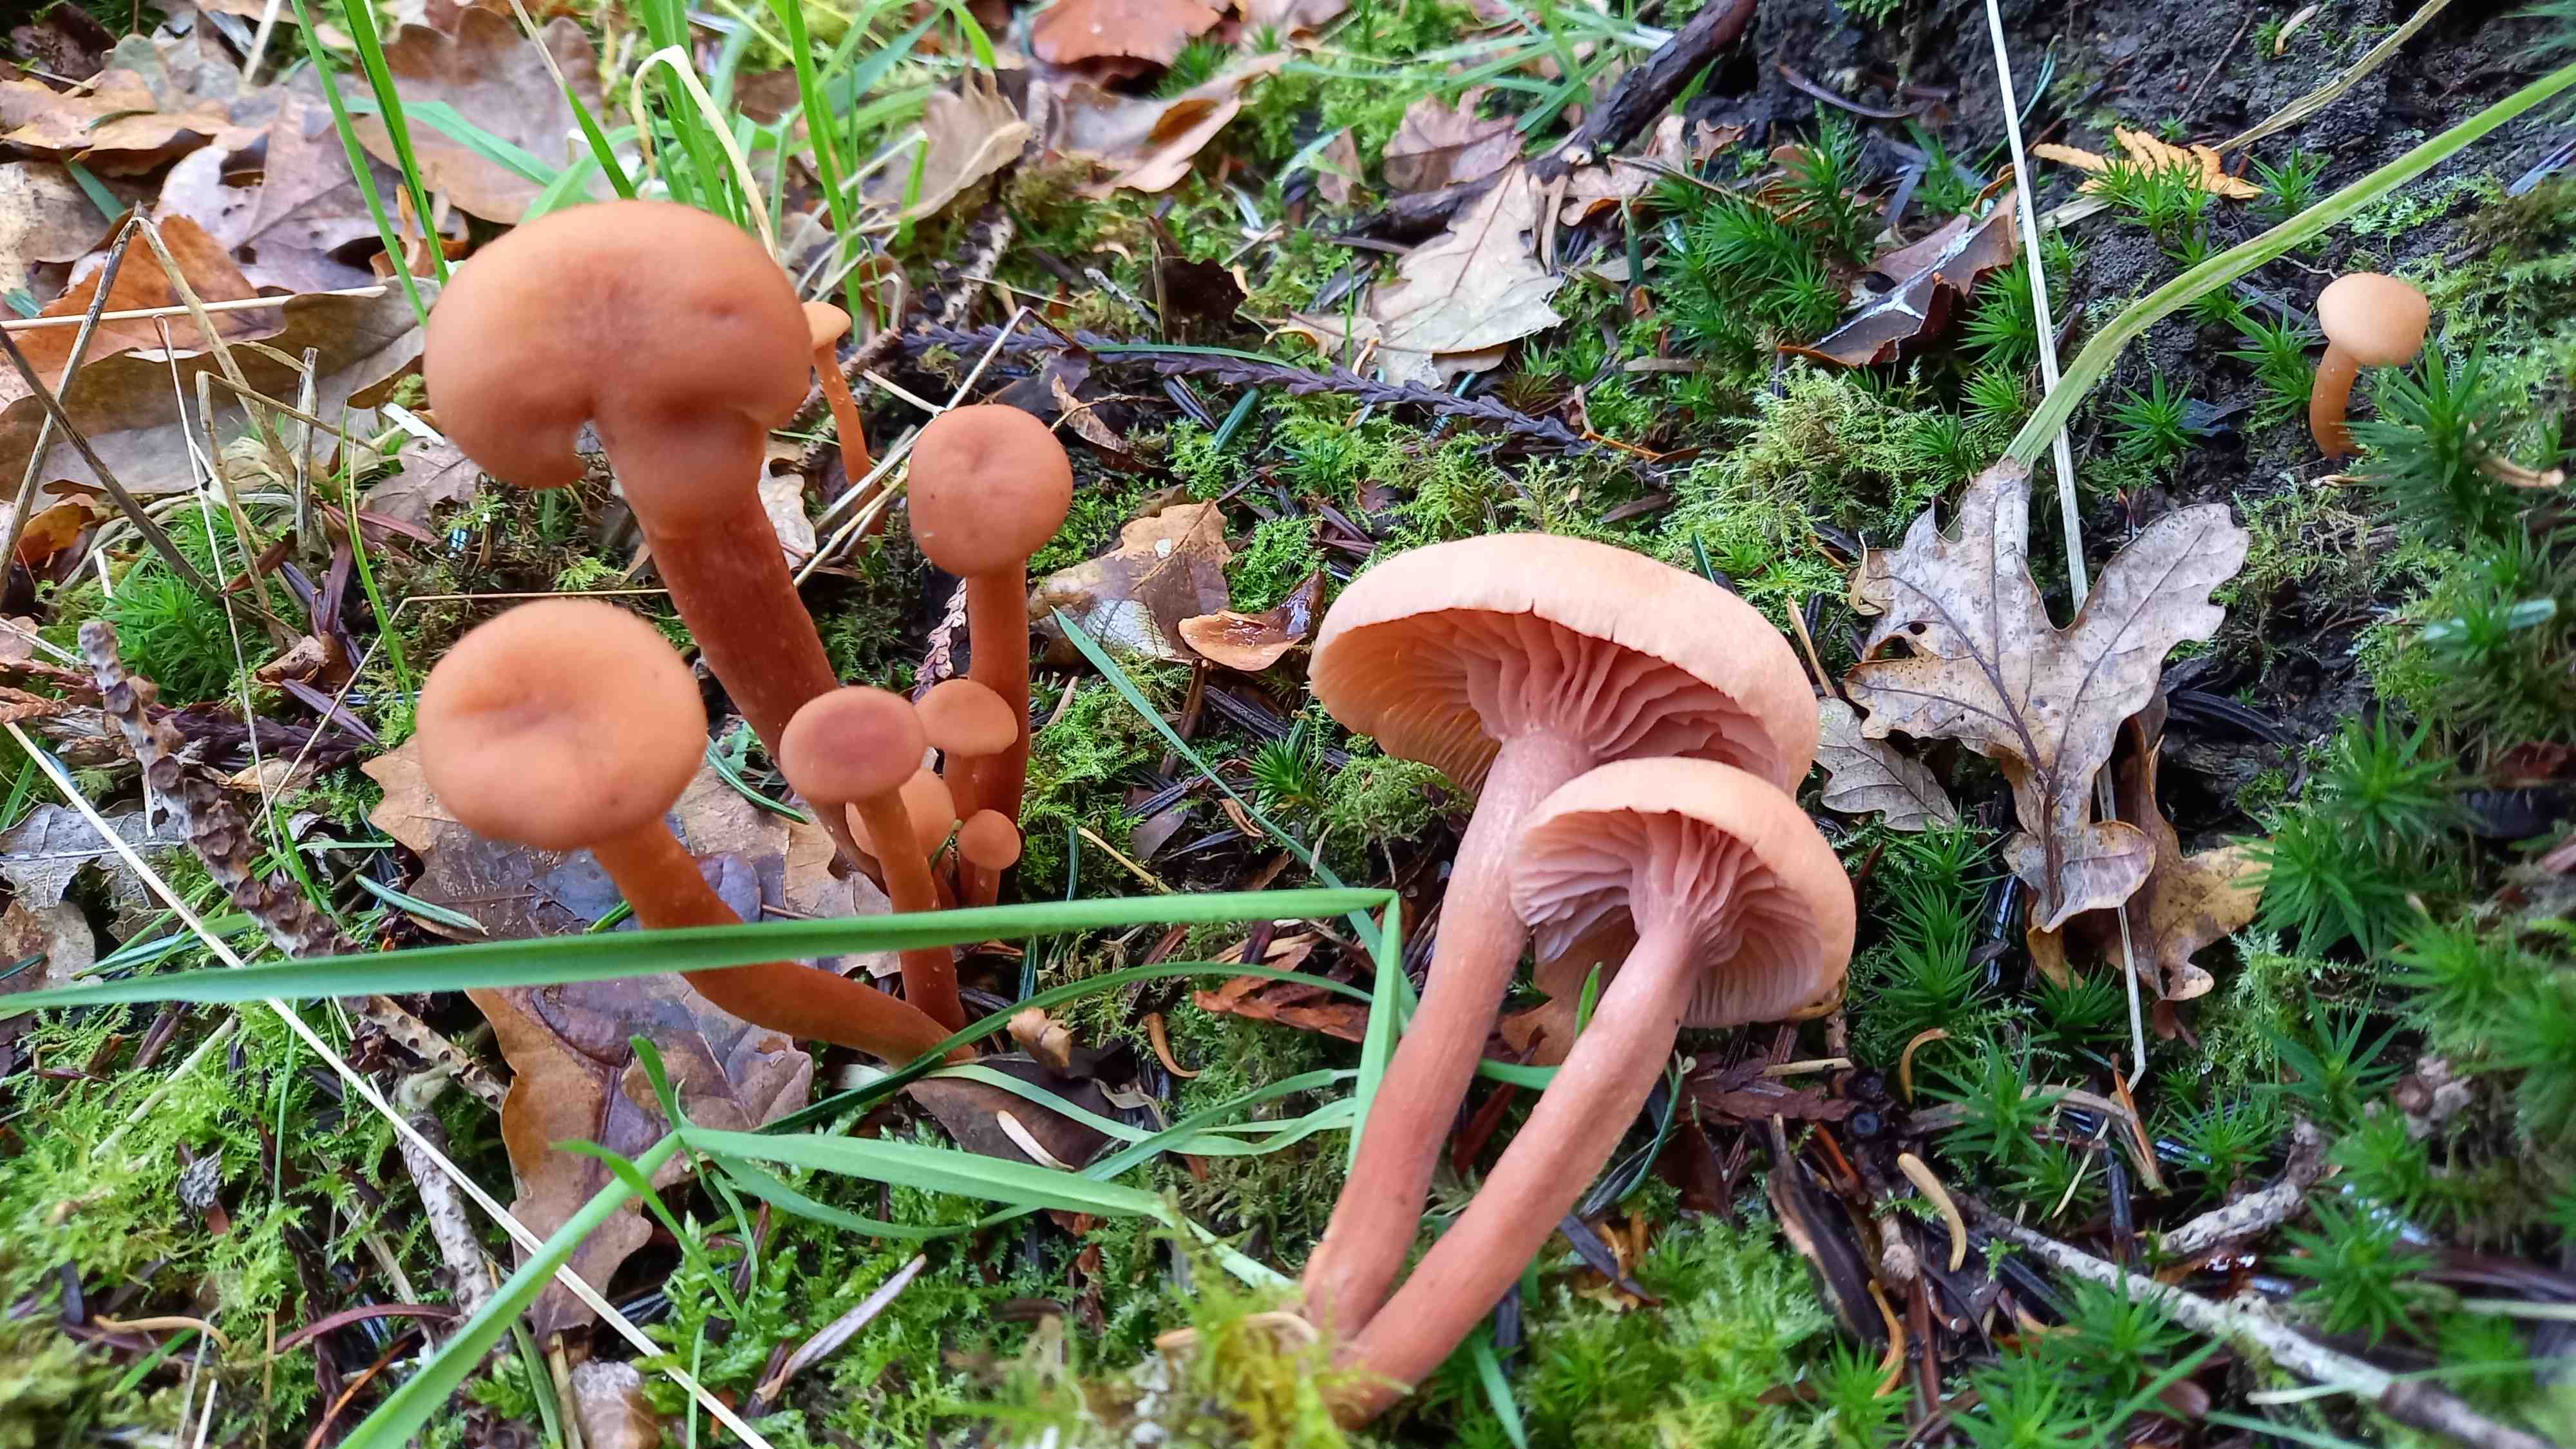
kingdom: Fungi
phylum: Basidiomycota
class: Agaricomycetes
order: Agaricales
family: Hydnangiaceae
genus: Laccaria
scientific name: Laccaria laccata
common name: rød ametysthat
